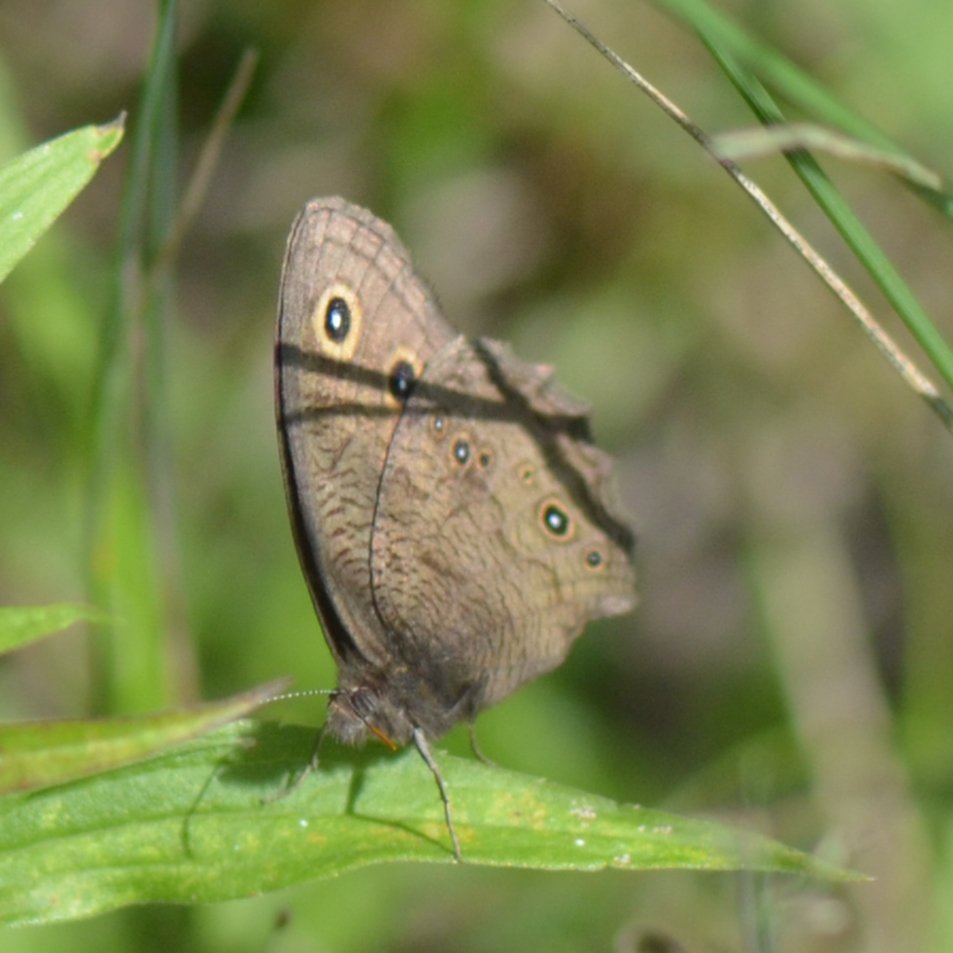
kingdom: Animalia
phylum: Arthropoda
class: Insecta
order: Lepidoptera
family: Nymphalidae
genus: Cercyonis
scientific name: Cercyonis pegala
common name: Common Wood-Nymph
